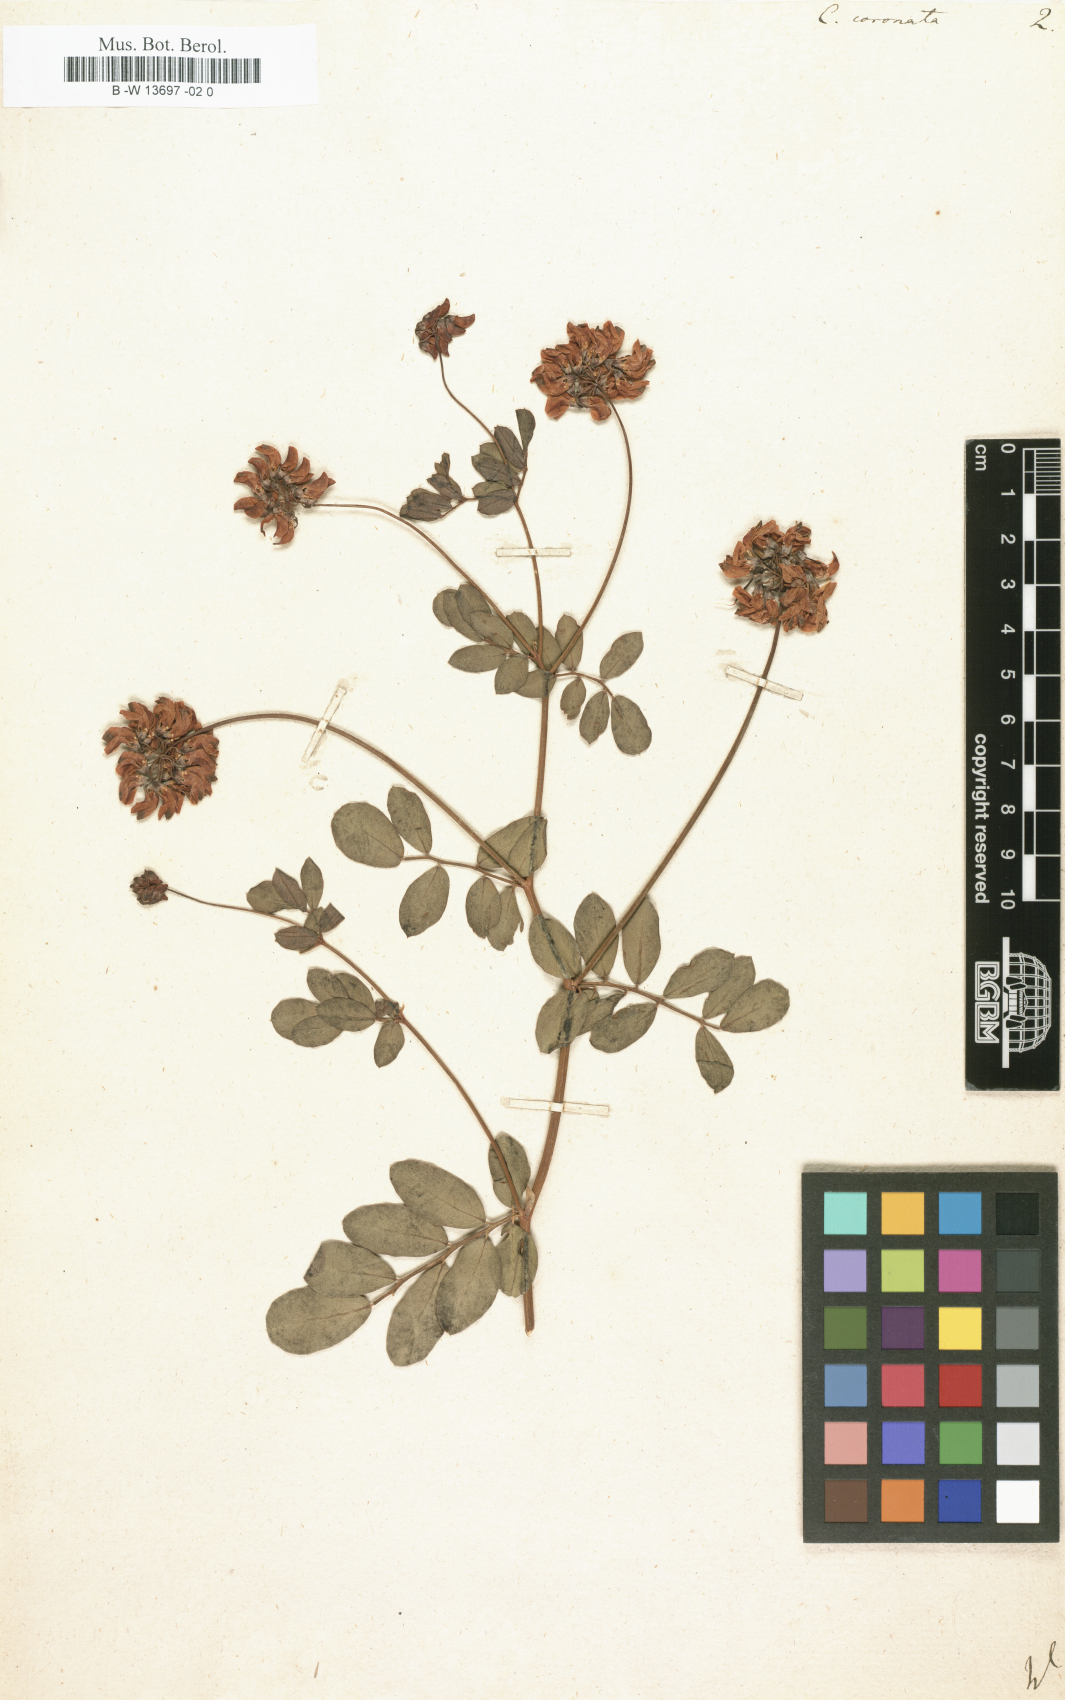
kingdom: Plantae
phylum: Tracheophyta
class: Magnoliopsida
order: Fabales
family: Fabaceae
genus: Coronilla
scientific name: Coronilla coronata
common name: Scorpion-vetch
